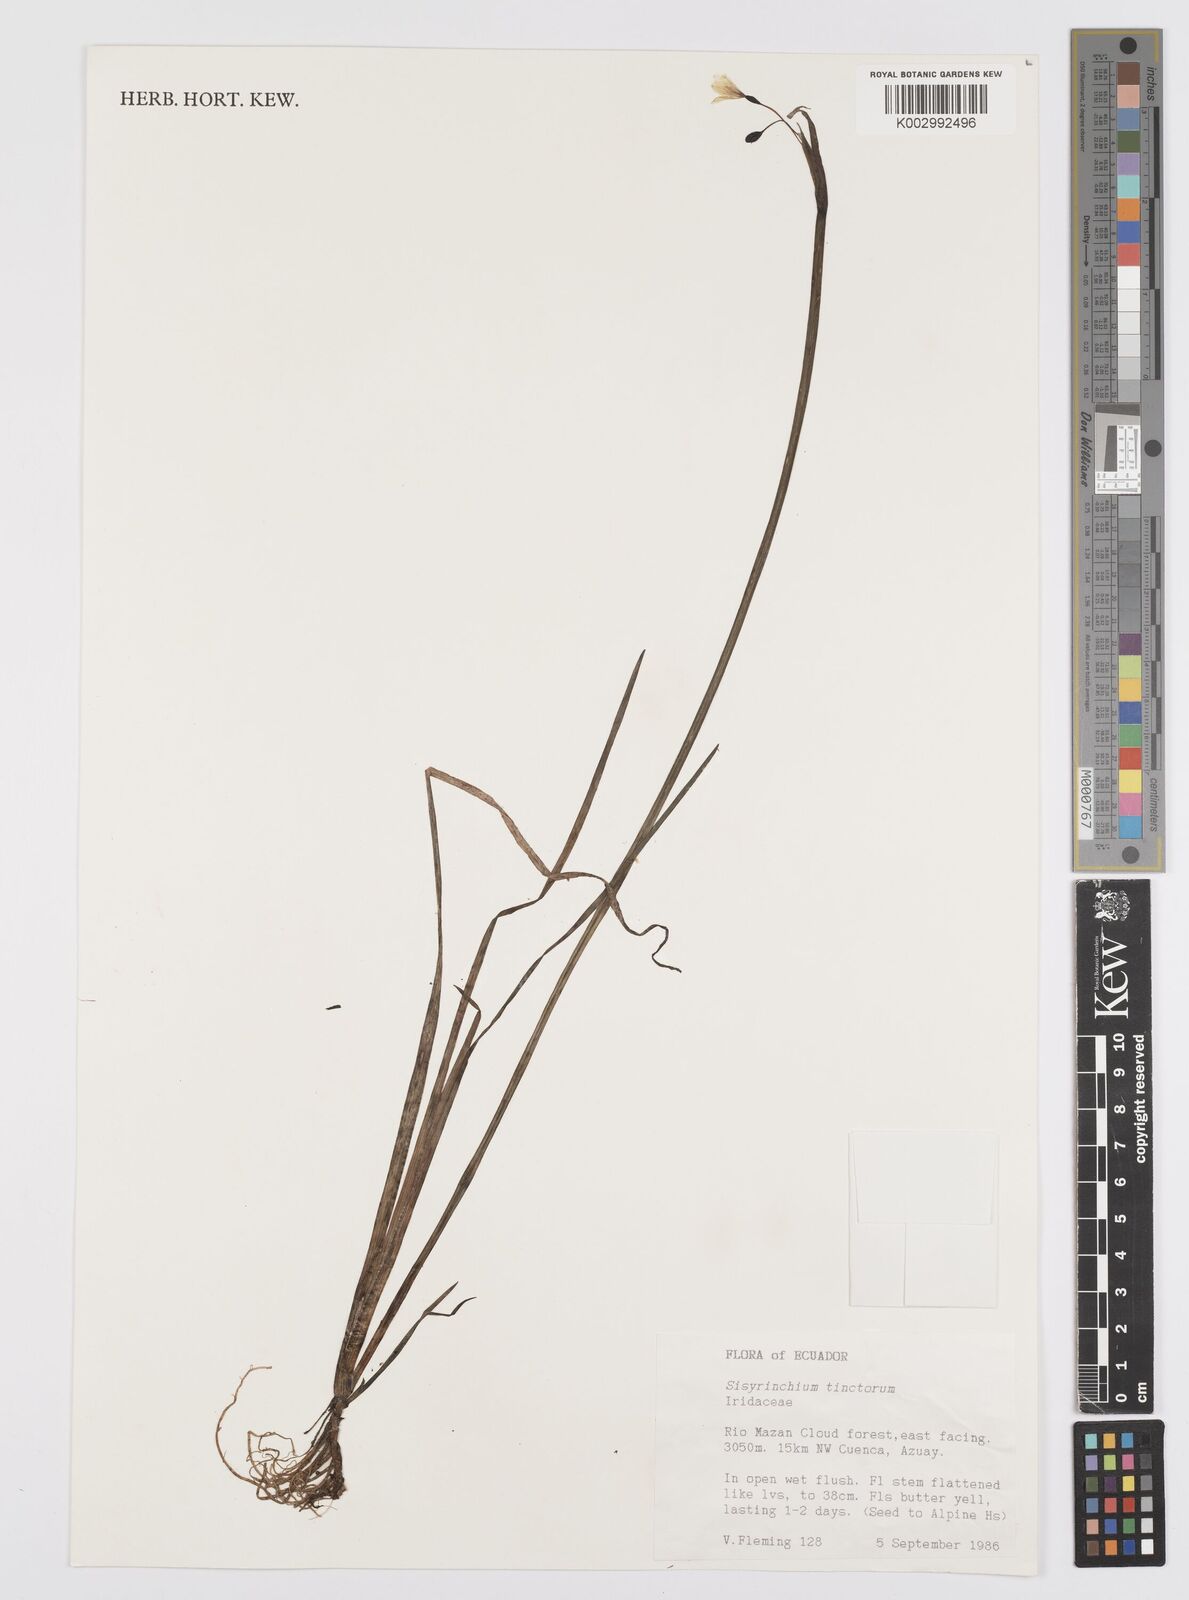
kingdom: Plantae
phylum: Tracheophyta
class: Liliopsida
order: Asparagales
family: Iridaceae
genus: Sisyrinchium
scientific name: Sisyrinchium tinctorium
